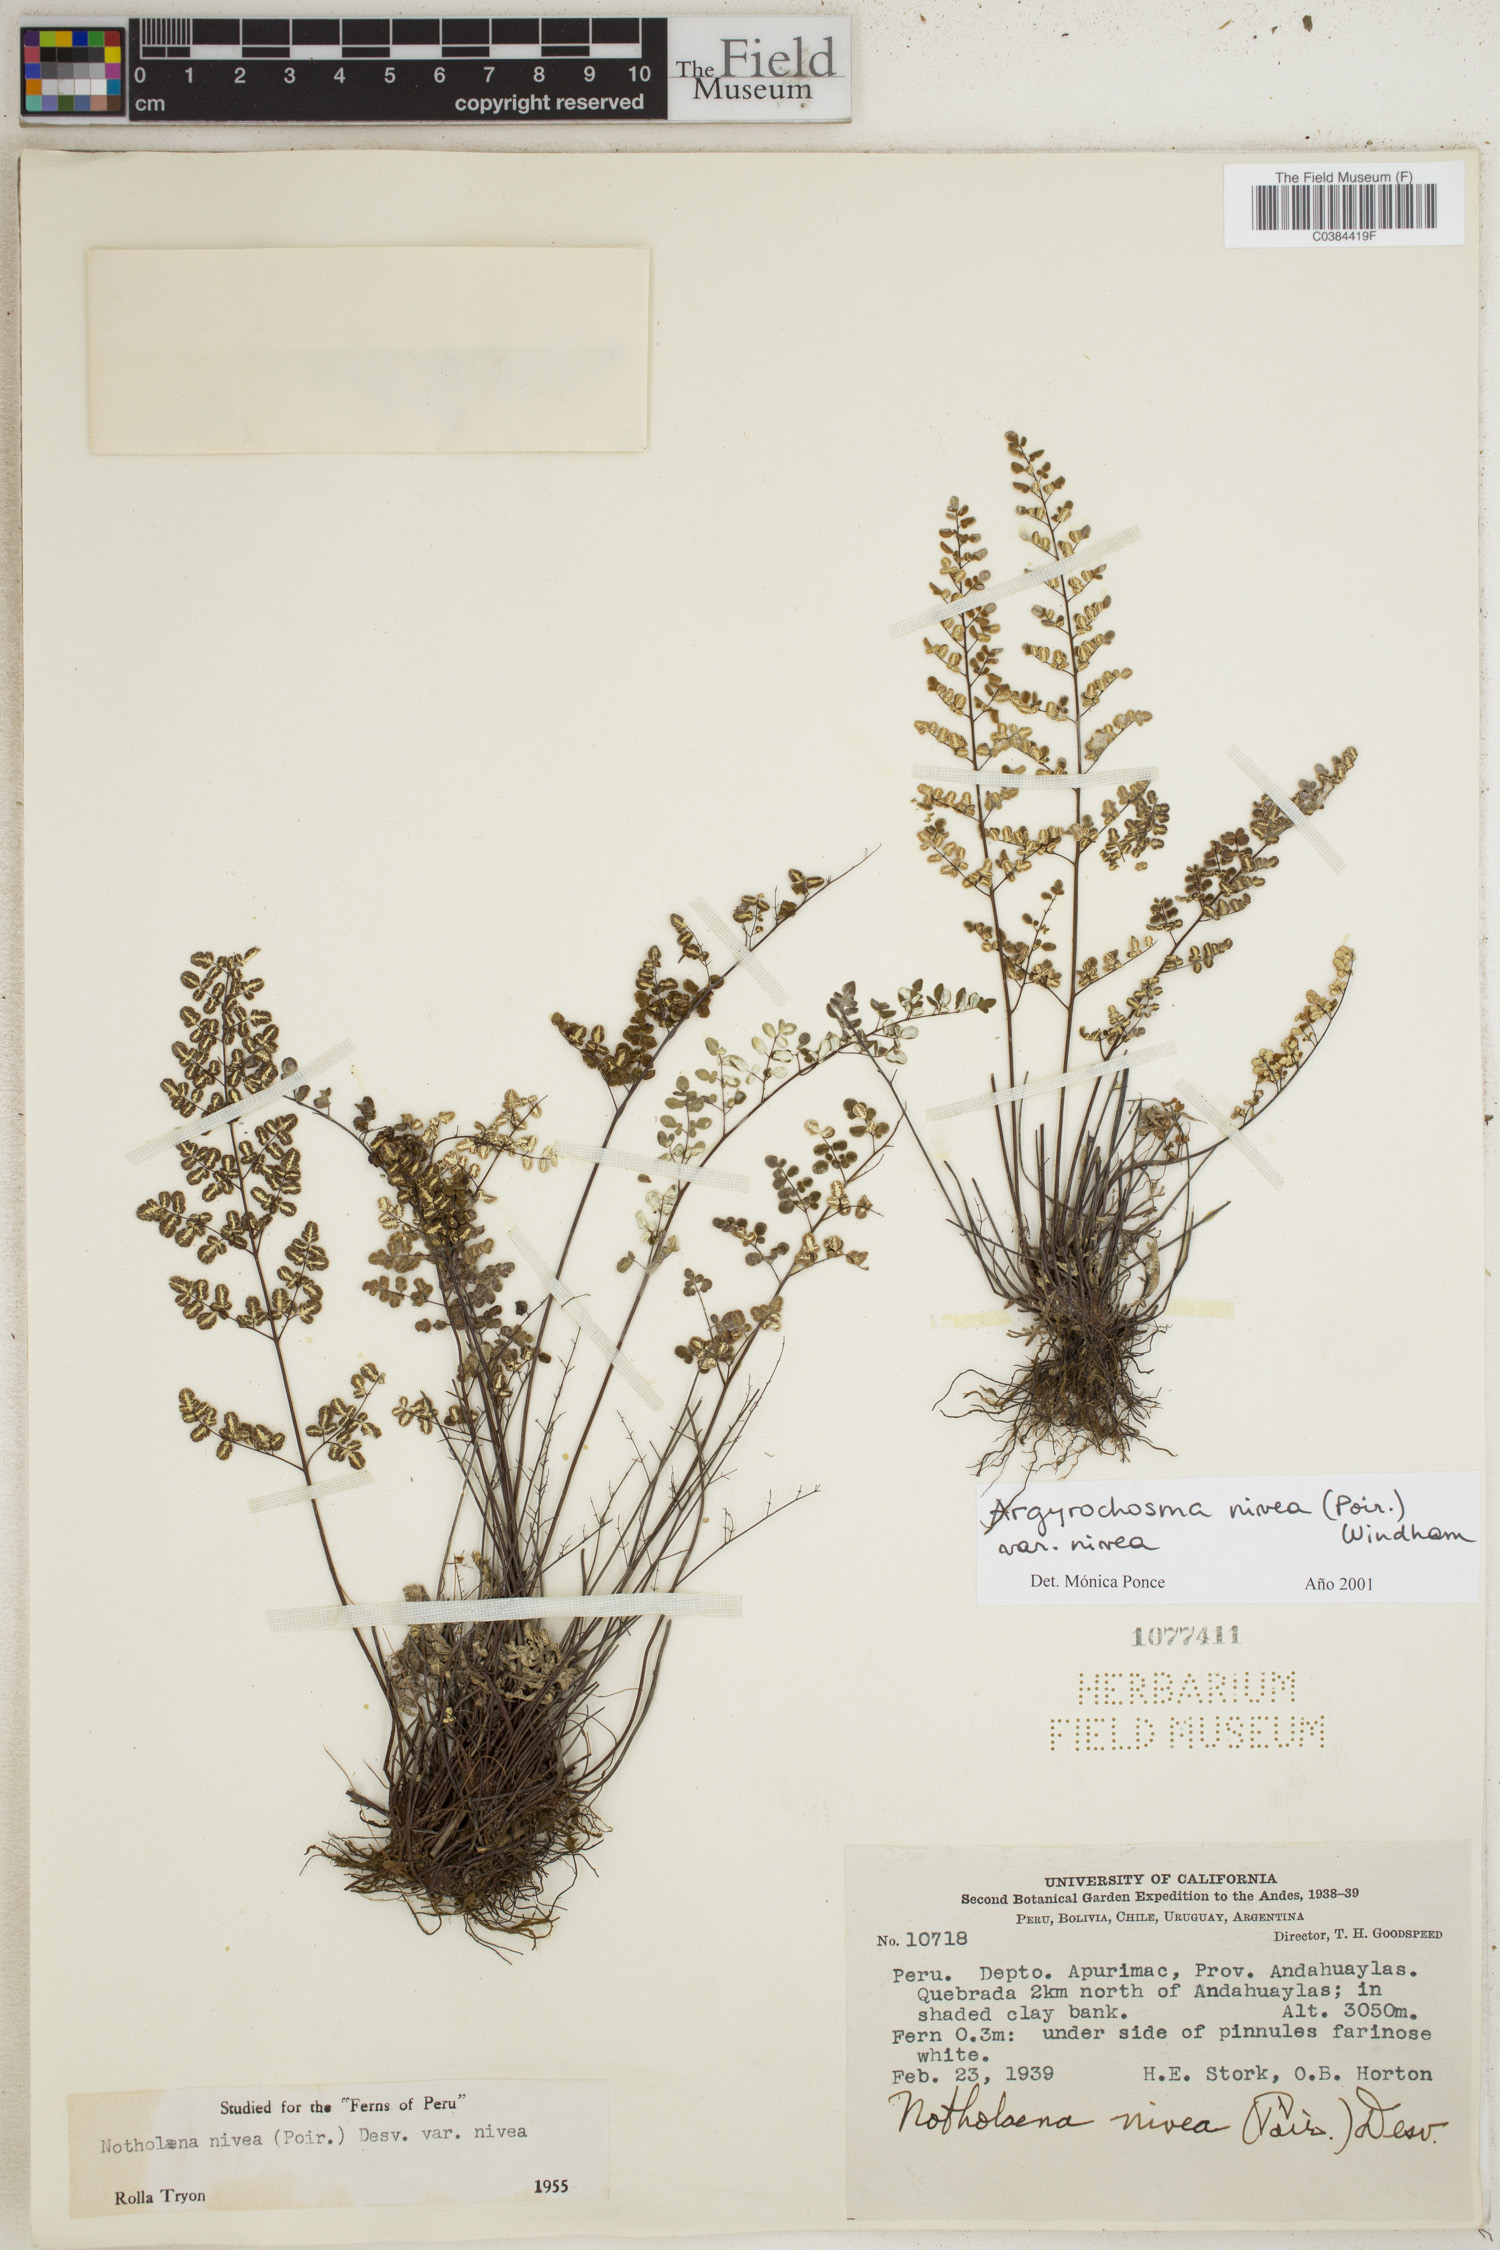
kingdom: Plantae
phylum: Tracheophyta
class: Polypodiopsida
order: Polypodiales
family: Pteridaceae
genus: Argyrochosma
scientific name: Argyrochosma nivea
